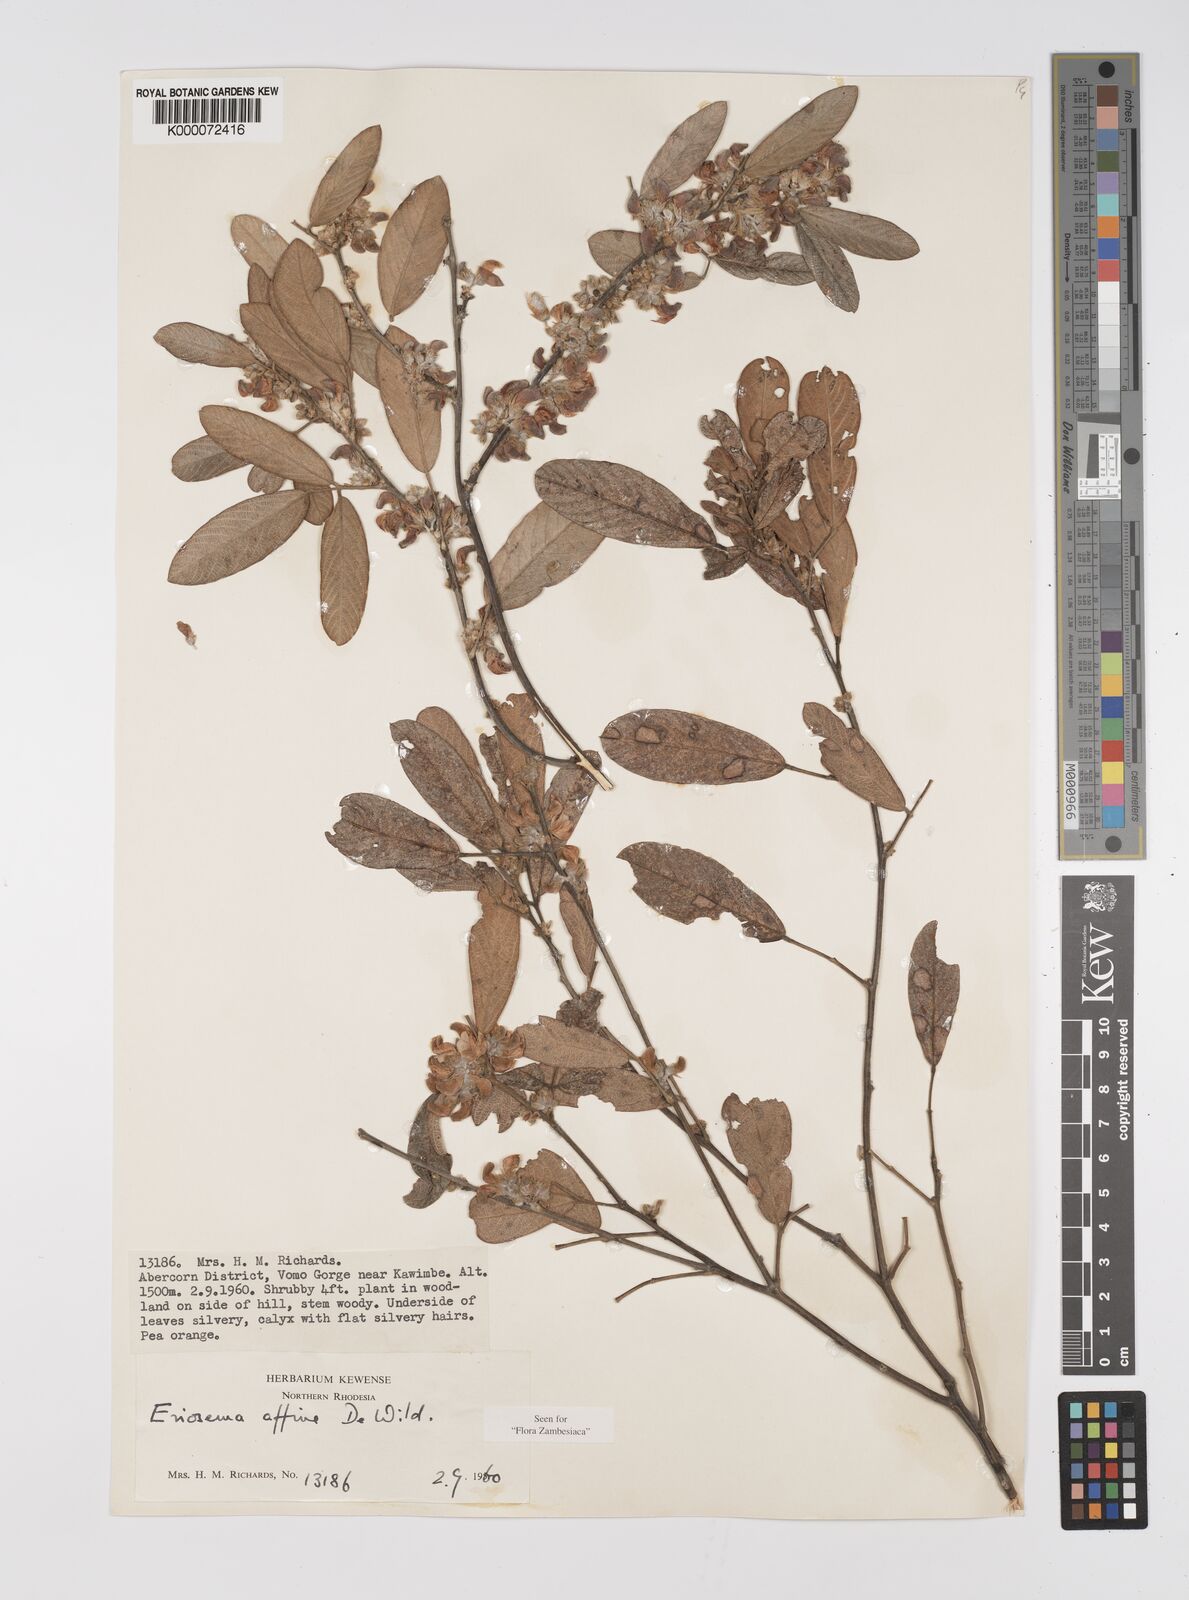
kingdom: Plantae
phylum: Tracheophyta
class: Magnoliopsida
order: Fabales
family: Fabaceae
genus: Eriosema
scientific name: Eriosema affine
